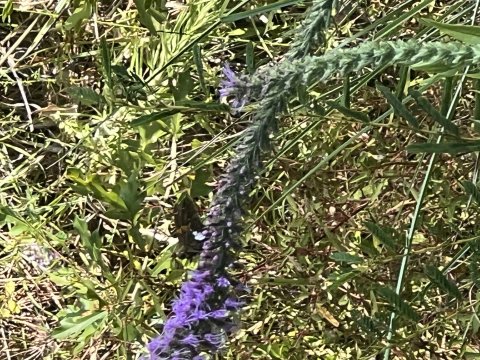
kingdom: Animalia
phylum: Arthropoda
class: Insecta
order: Lepidoptera
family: Hesperiidae
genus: Epargyreus
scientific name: Epargyreus clarus
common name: Silver-spotted Skipper
